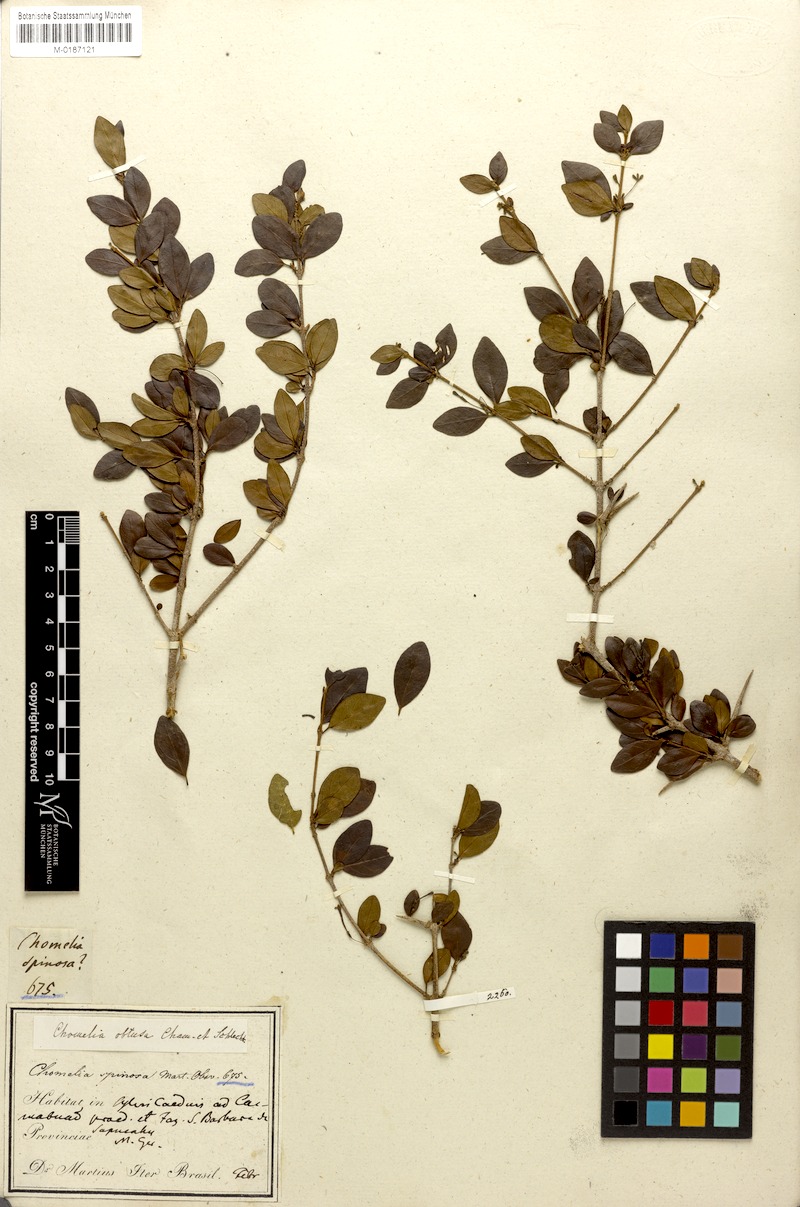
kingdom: Plantae
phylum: Tracheophyta
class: Magnoliopsida
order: Gentianales
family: Rubiaceae
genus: Chomelia
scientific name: Chomelia obtusa
